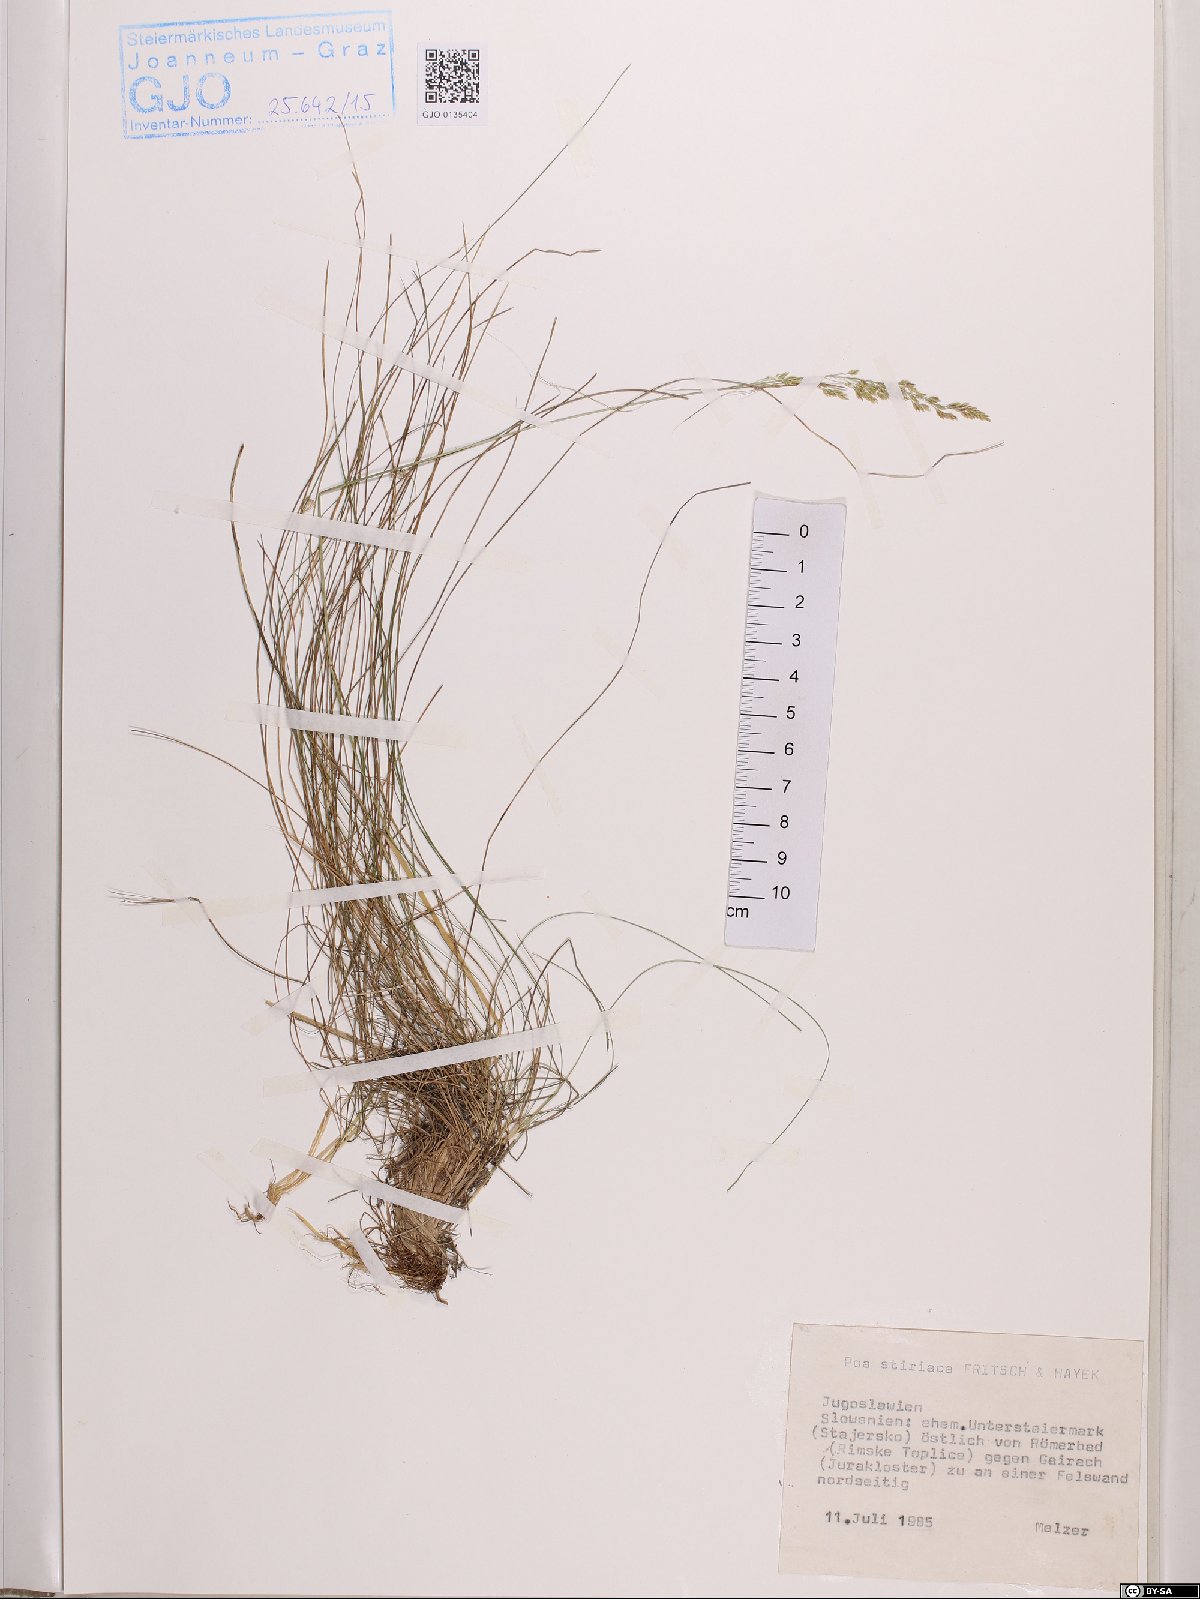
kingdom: Plantae
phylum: Tracheophyta
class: Liliopsida
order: Poales
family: Poaceae
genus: Poa
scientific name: Poa stiriaca
